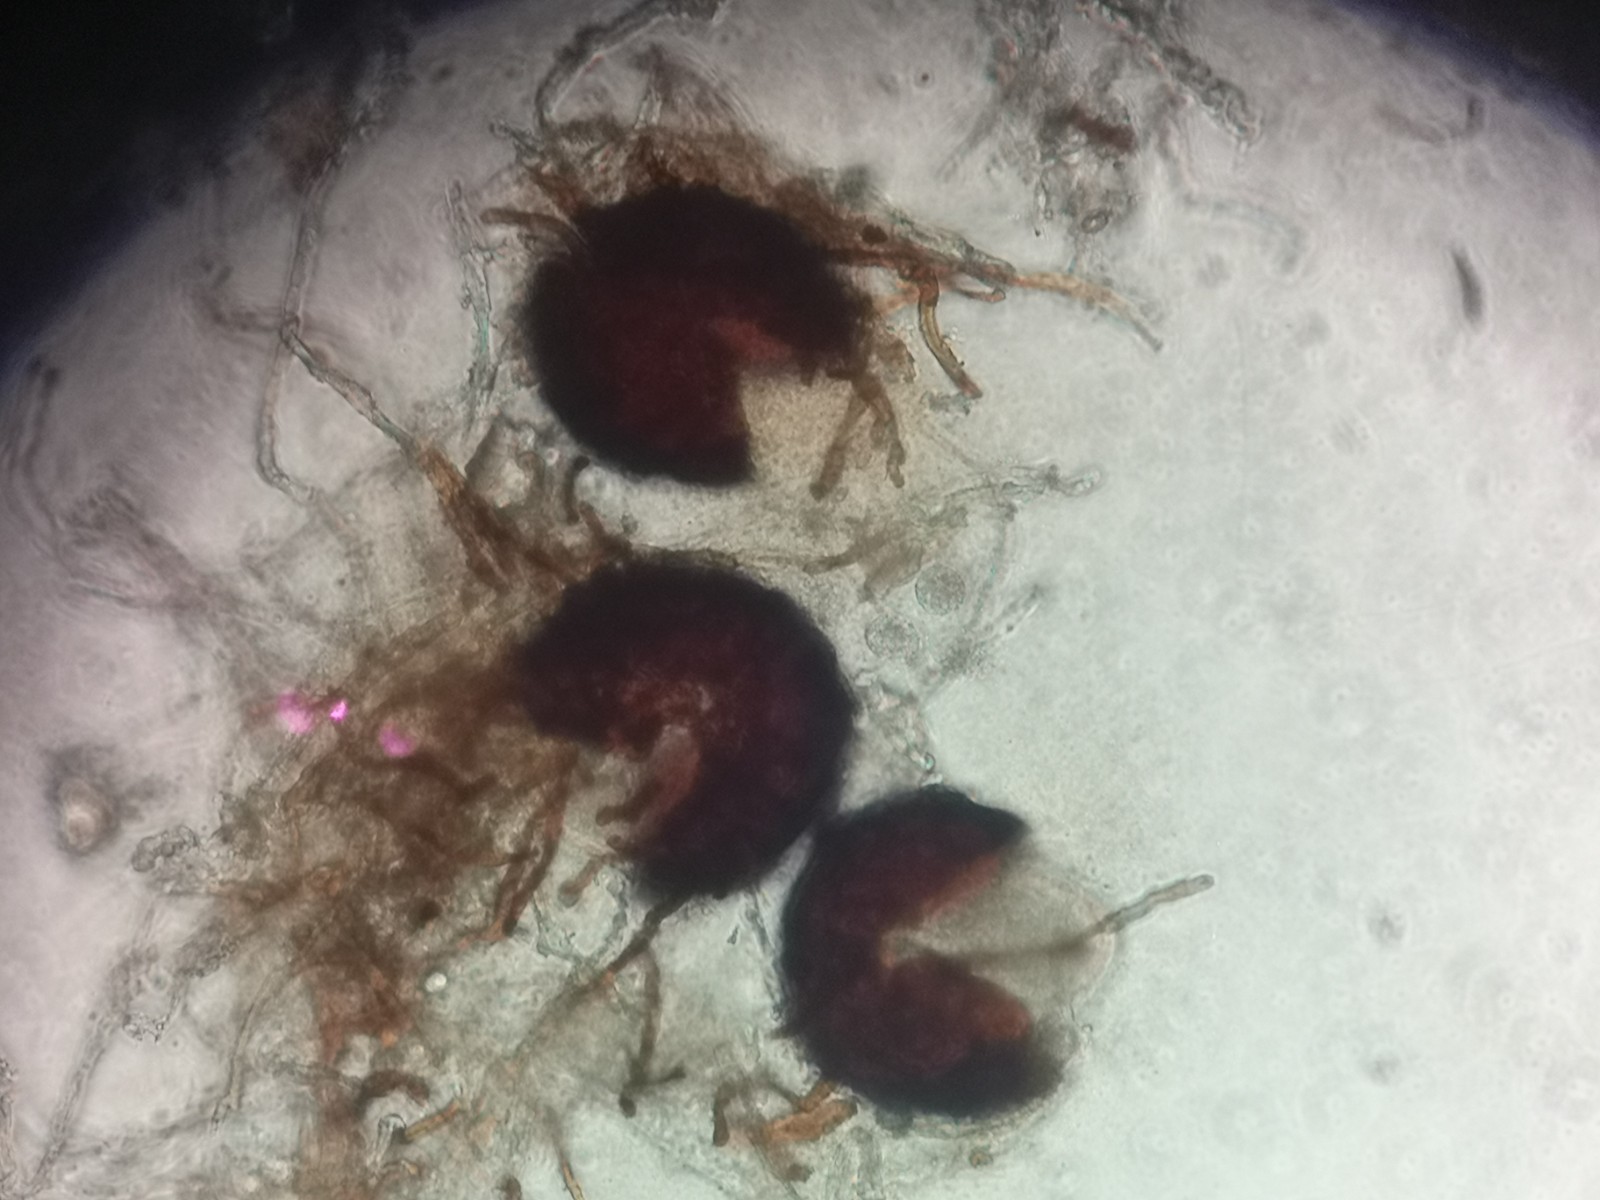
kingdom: Fungi
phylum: Ascomycota
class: Leotiomycetes
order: Helotiales
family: Erysiphaceae
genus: Podosphaera
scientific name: Podosphaera plantaginis
